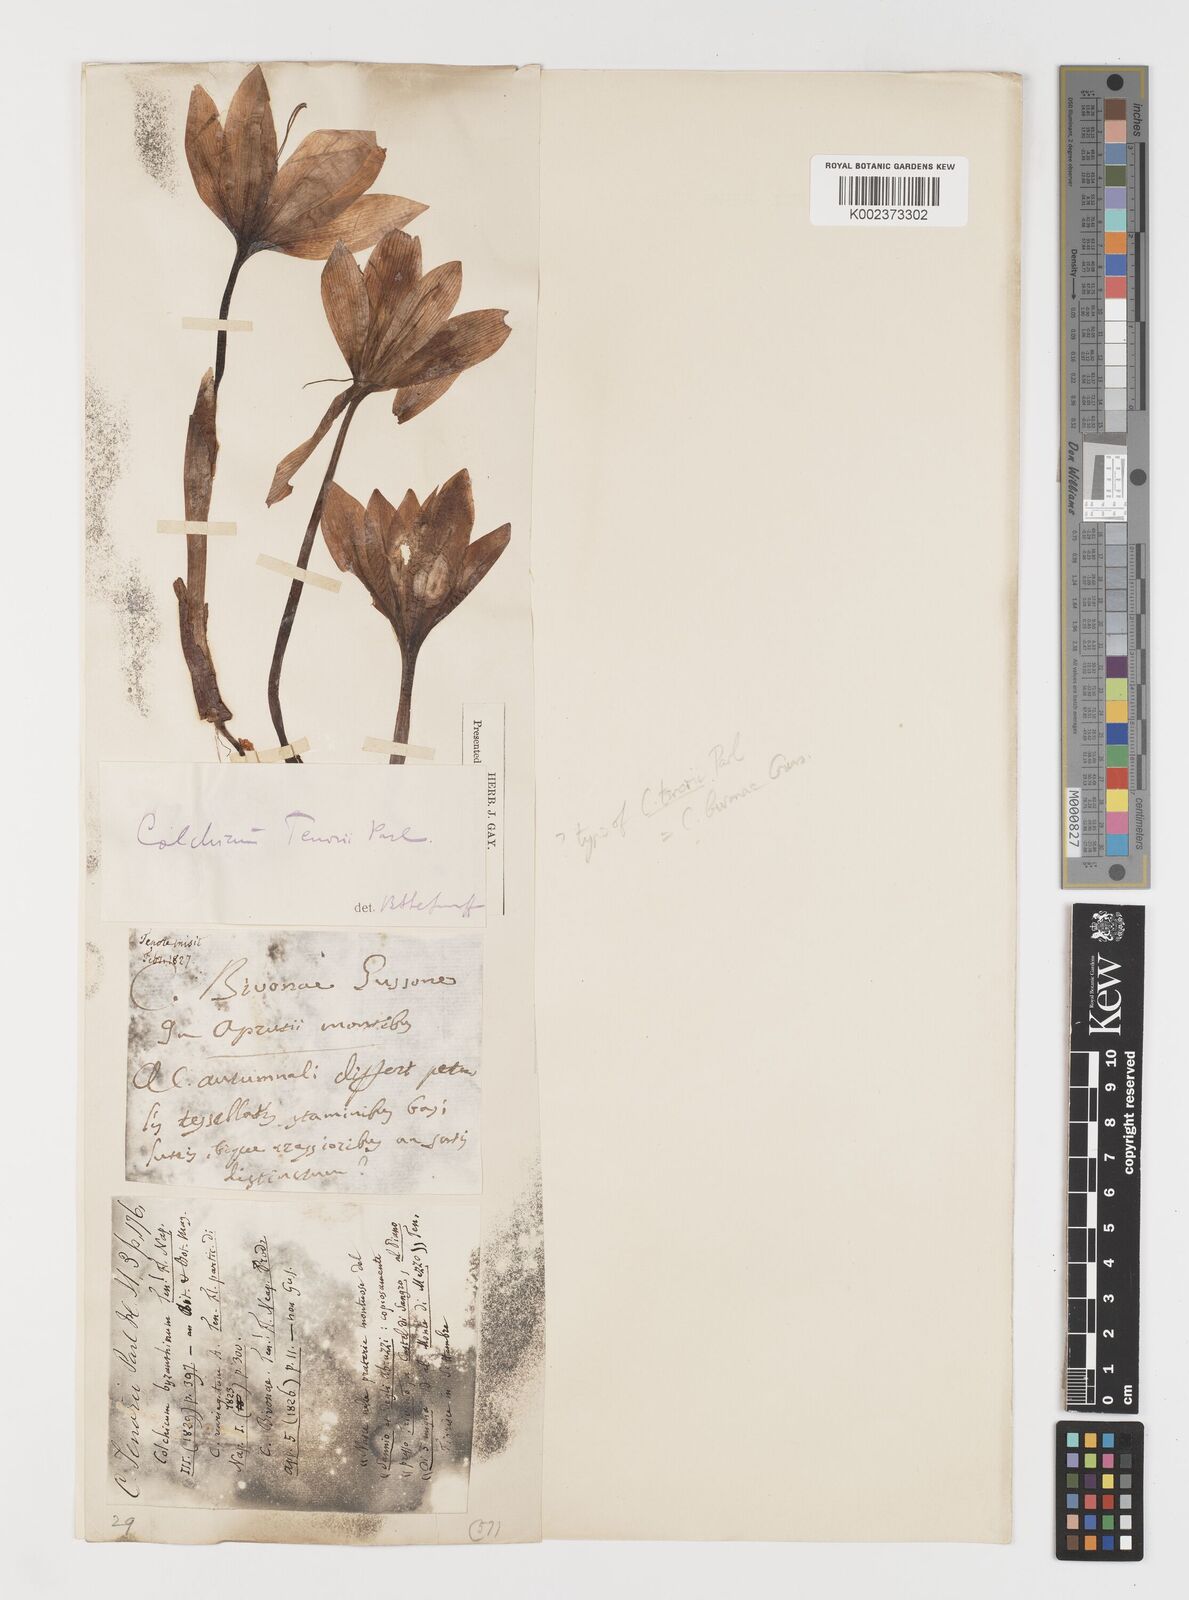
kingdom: Plantae
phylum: Tracheophyta
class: Liliopsida
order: Liliales
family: Colchicaceae
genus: Colchicum
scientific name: Colchicum bivonae
